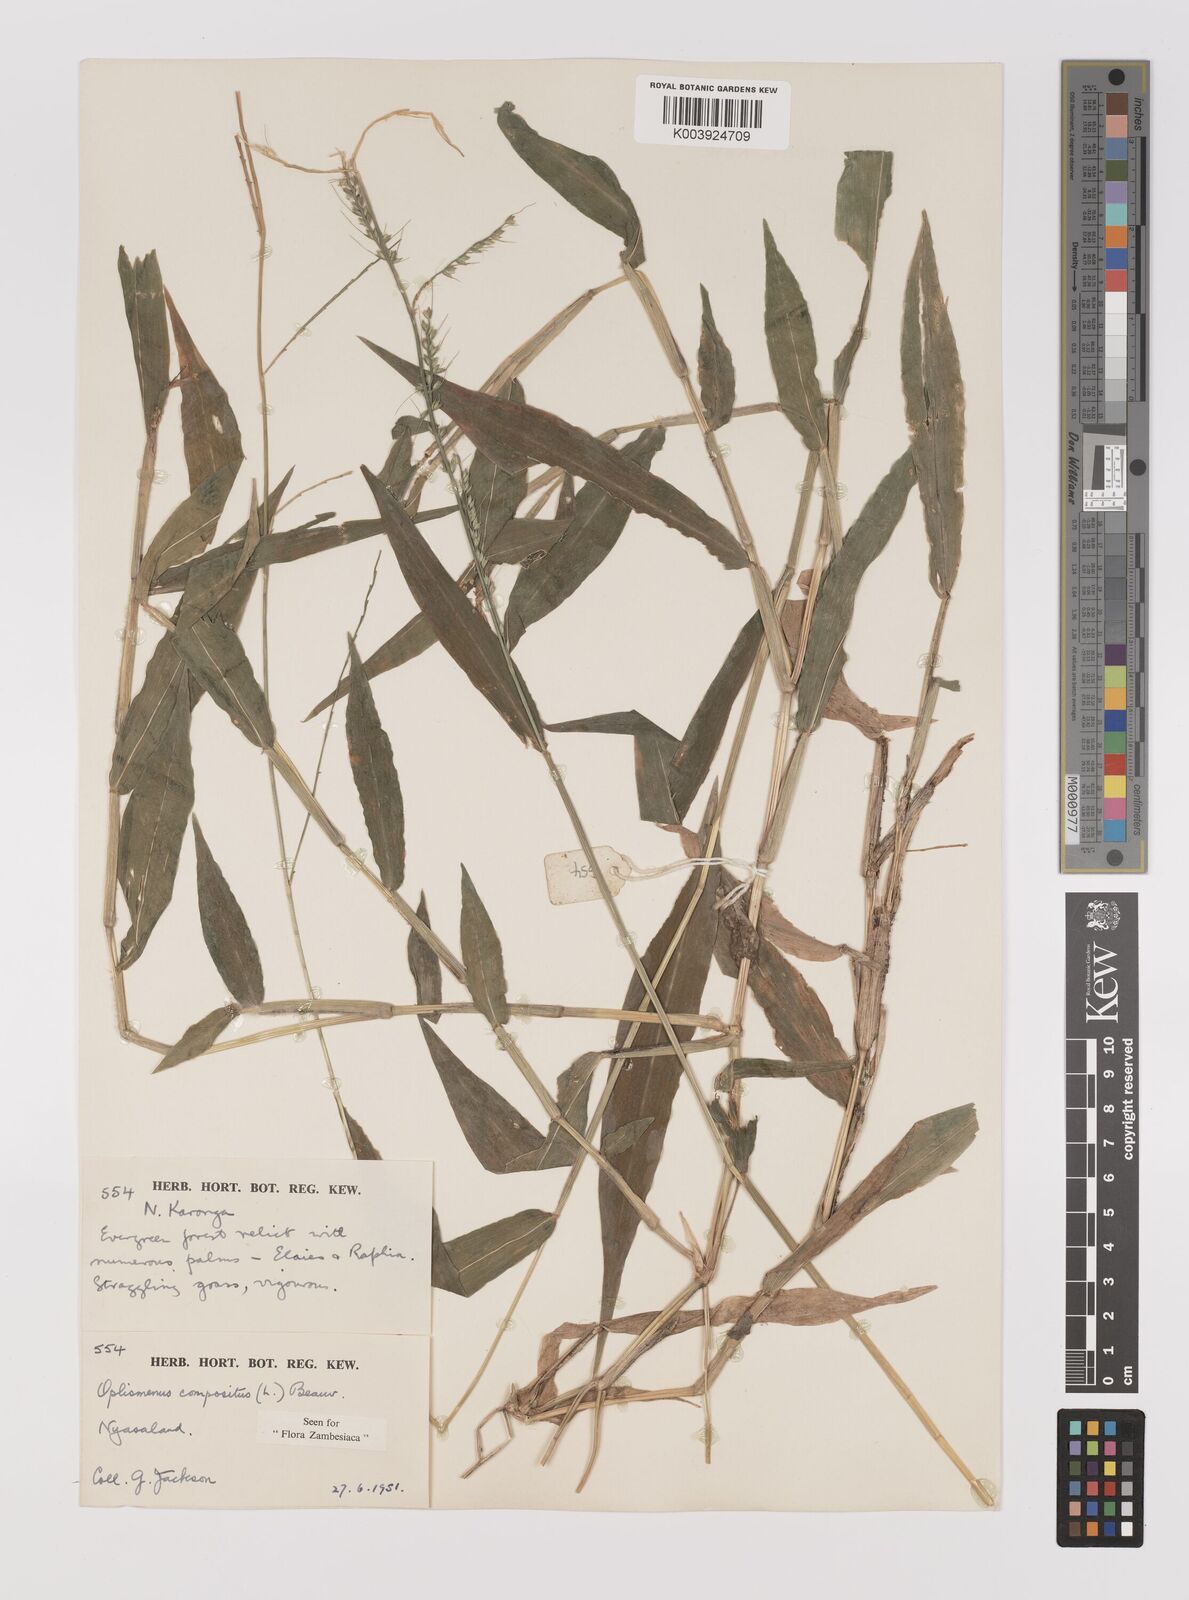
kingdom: Plantae
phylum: Tracheophyta
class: Liliopsida
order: Poales
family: Poaceae
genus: Oplismenus
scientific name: Oplismenus compositus
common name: Running mountain grass
